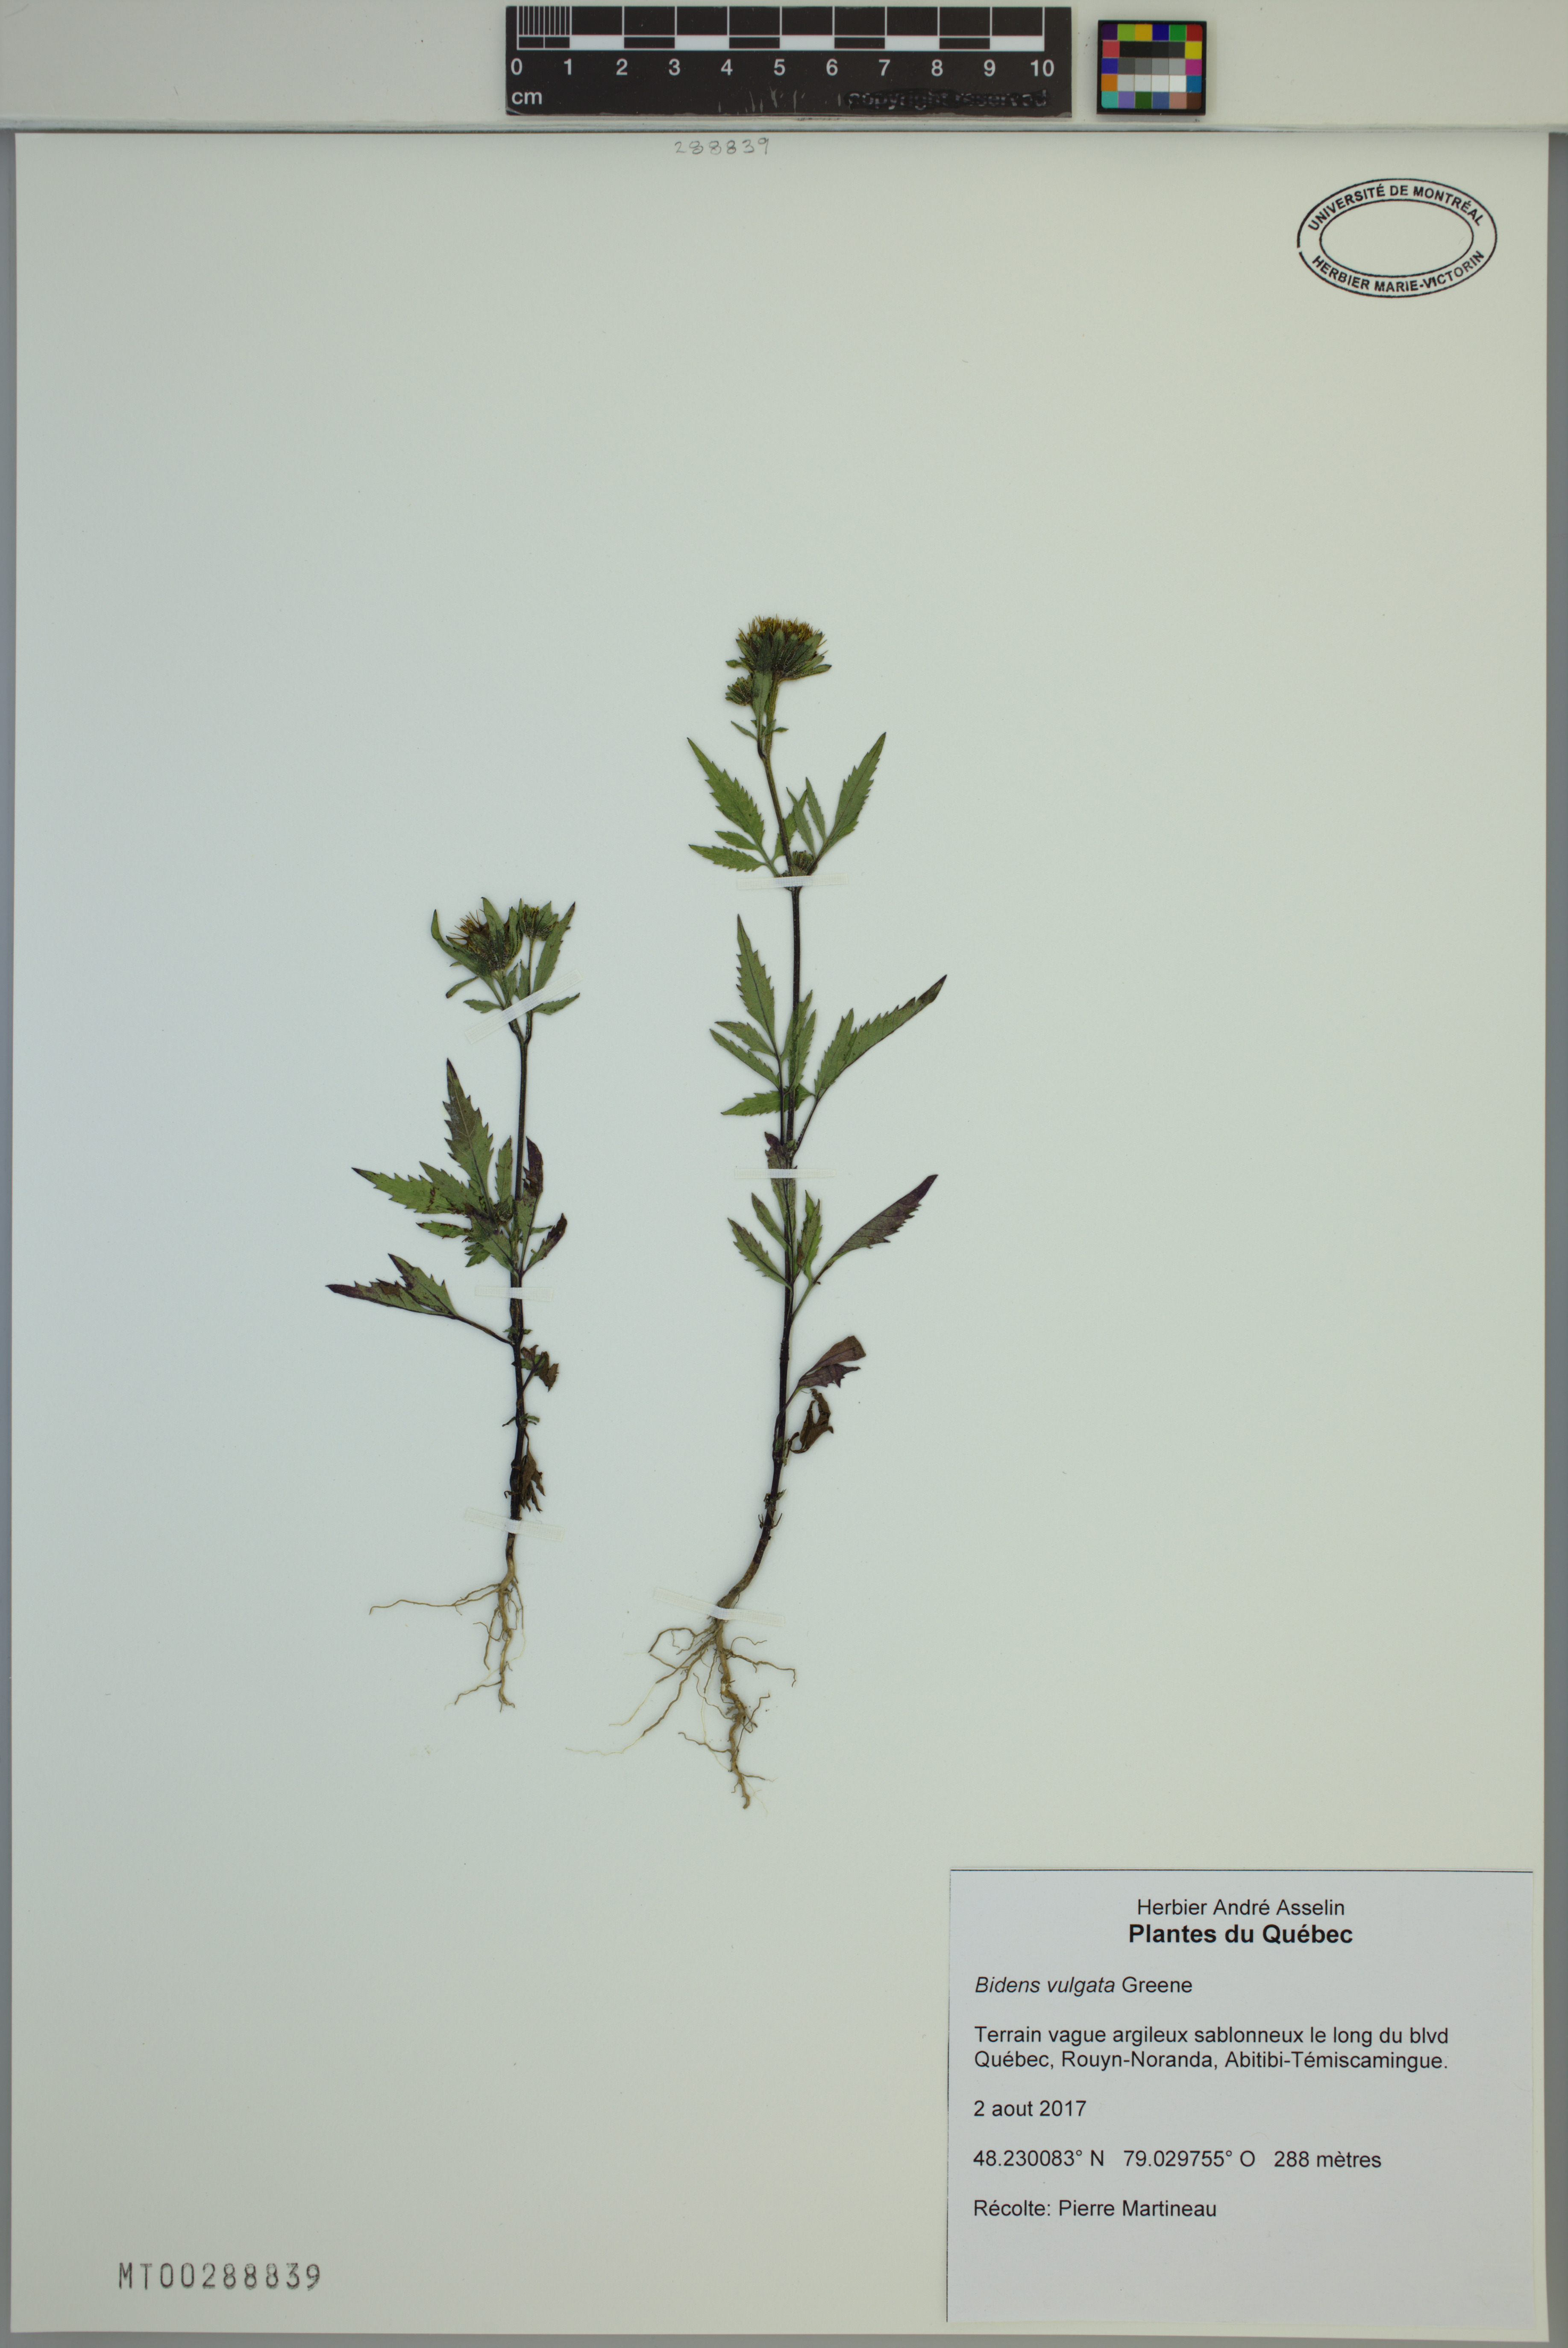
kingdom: Plantae
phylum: Tracheophyta
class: Magnoliopsida
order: Asterales
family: Asteraceae
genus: Bidens
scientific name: Bidens vulgata
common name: Tall beggarticks
